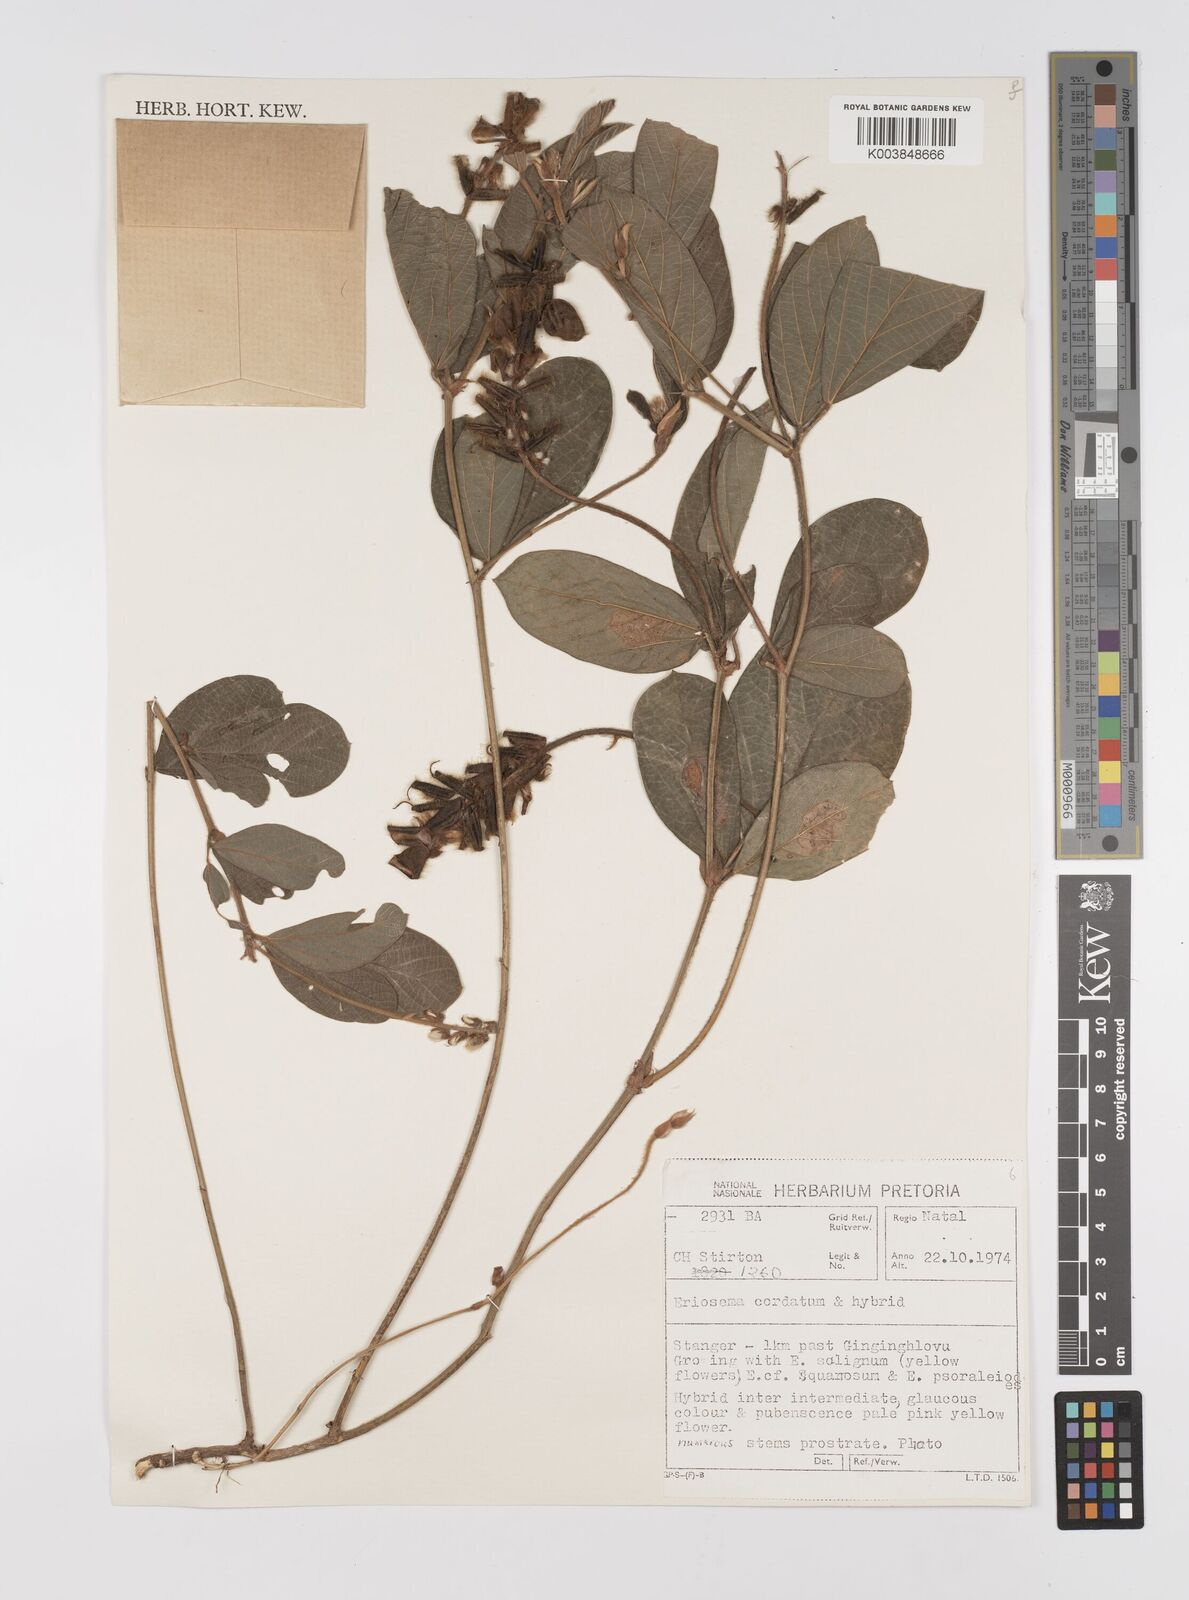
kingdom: Plantae
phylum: Tracheophyta
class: Magnoliopsida
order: Fabales
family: Fabaceae
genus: Eriosema
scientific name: Eriosema cordatum
